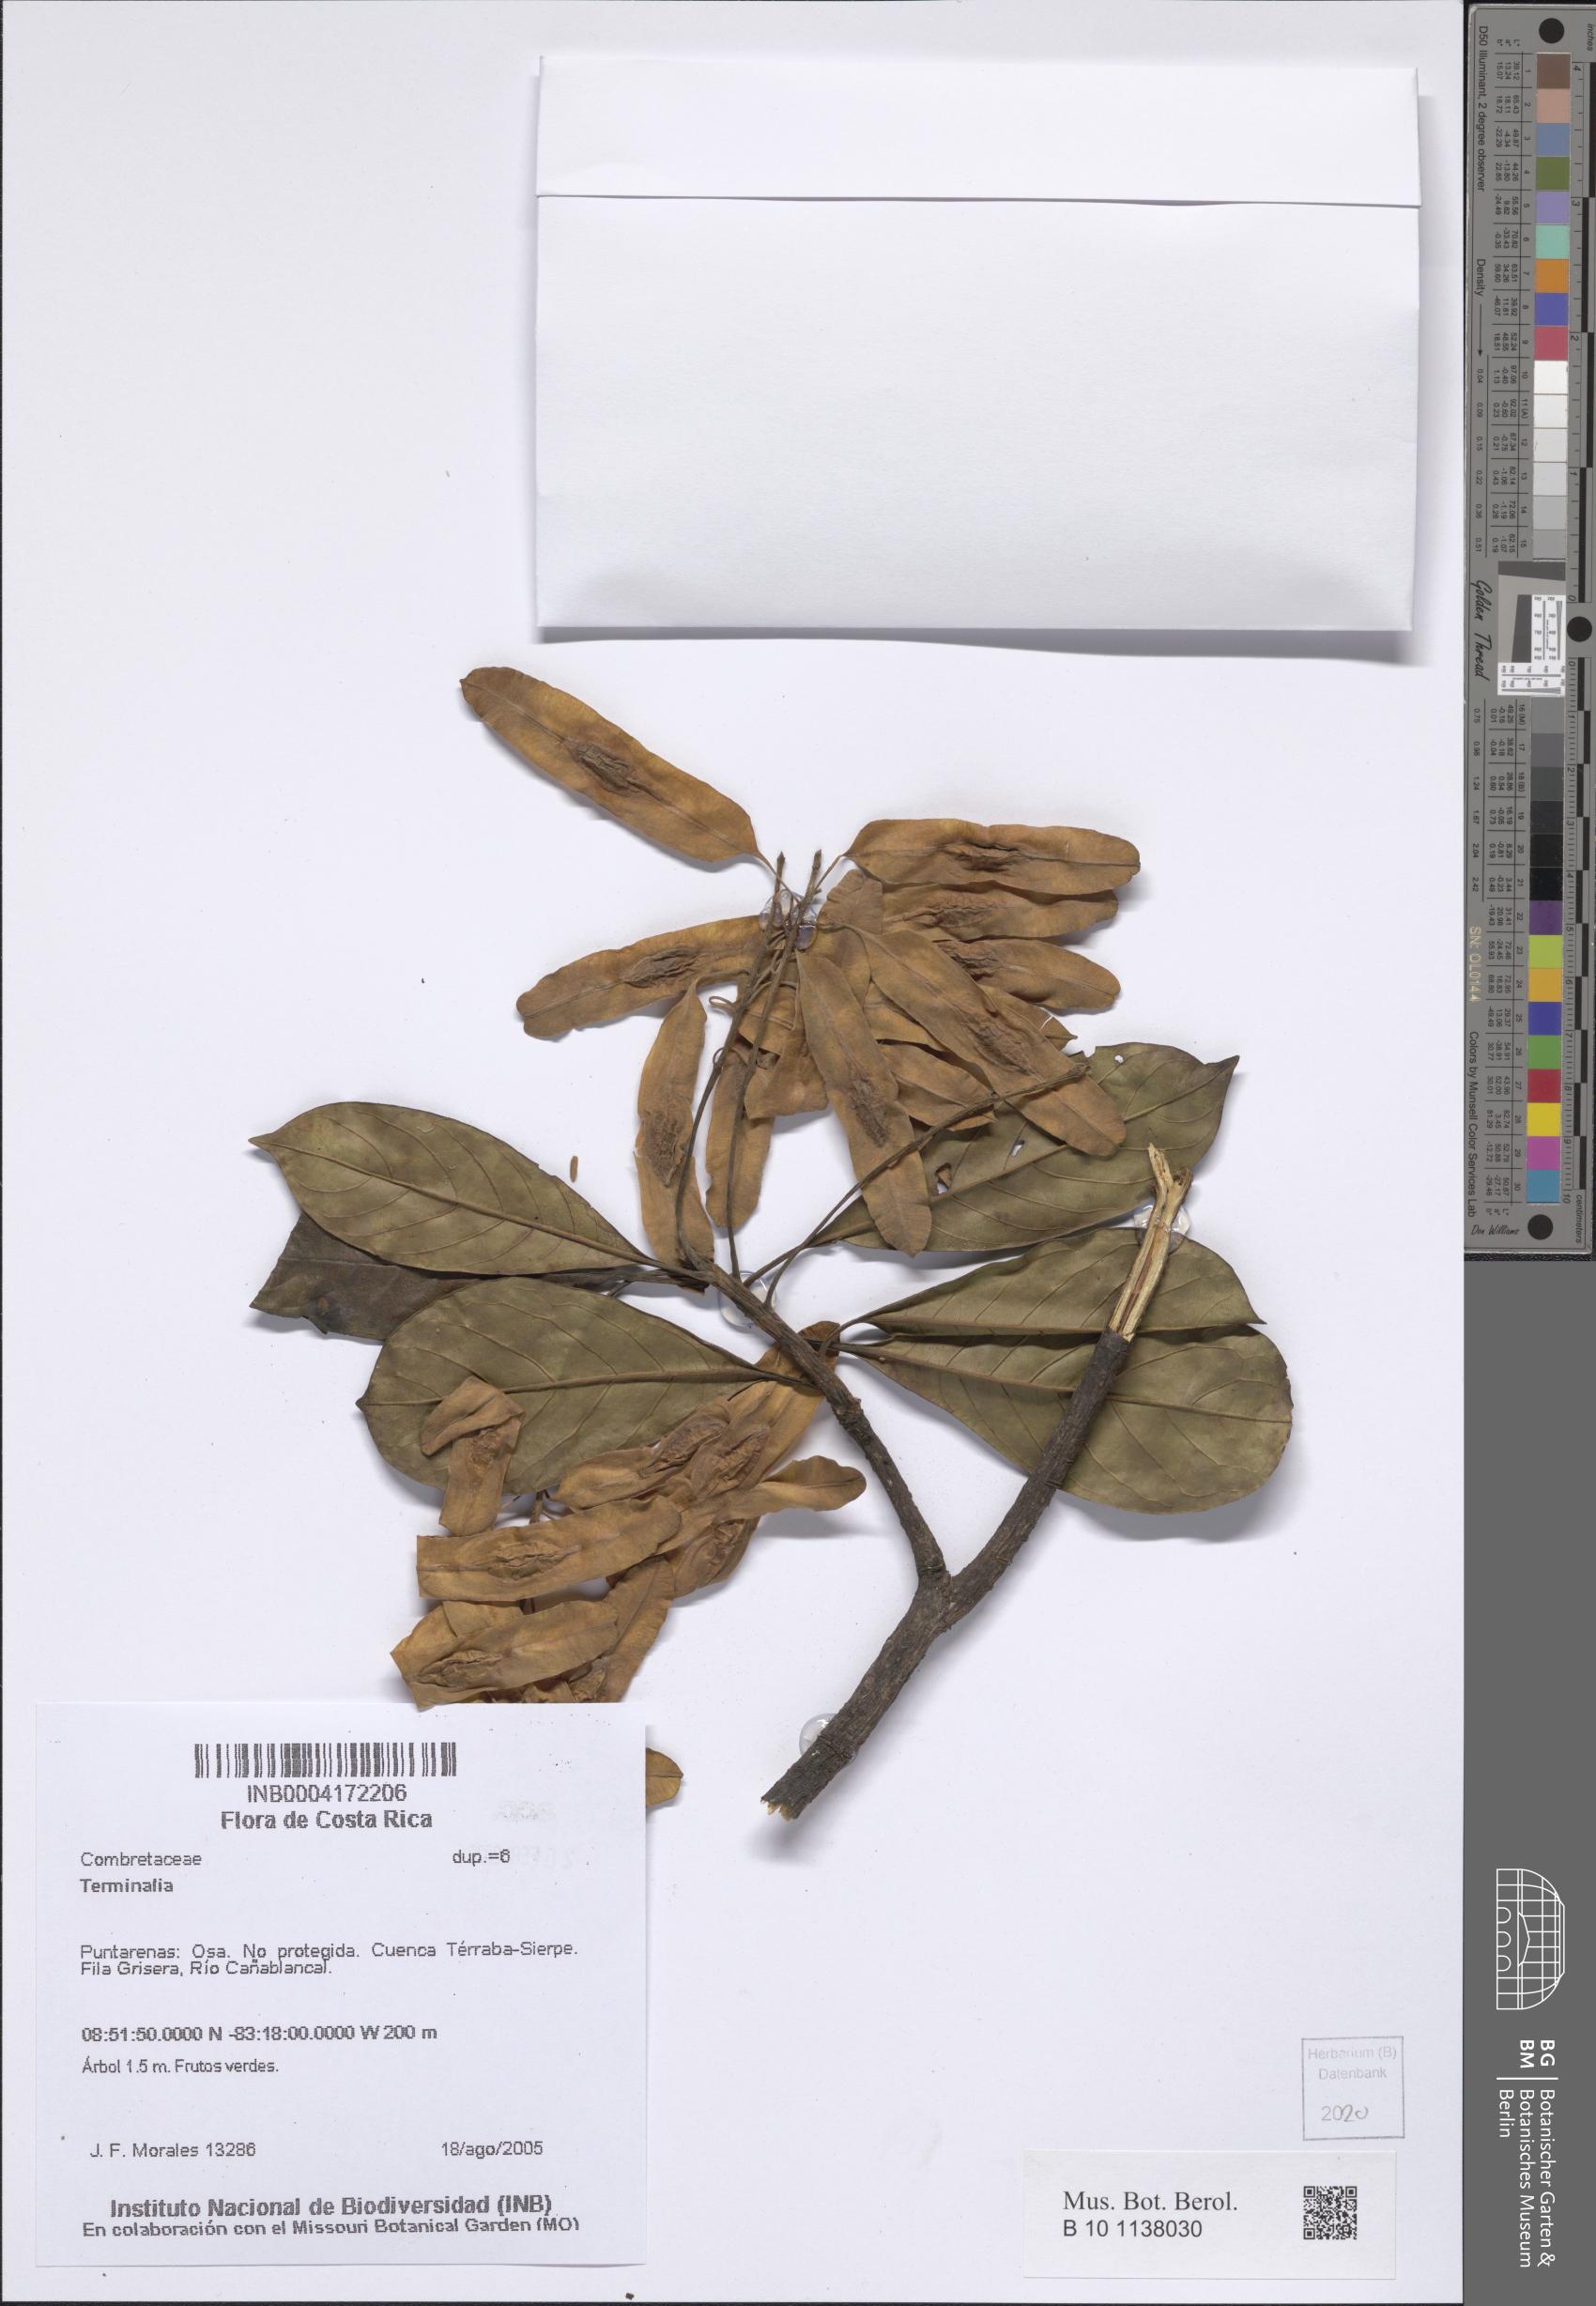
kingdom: Plantae
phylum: Tracheophyta
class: Magnoliopsida
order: Myrtales
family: Combretaceae
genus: Terminalia
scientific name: Terminalia
